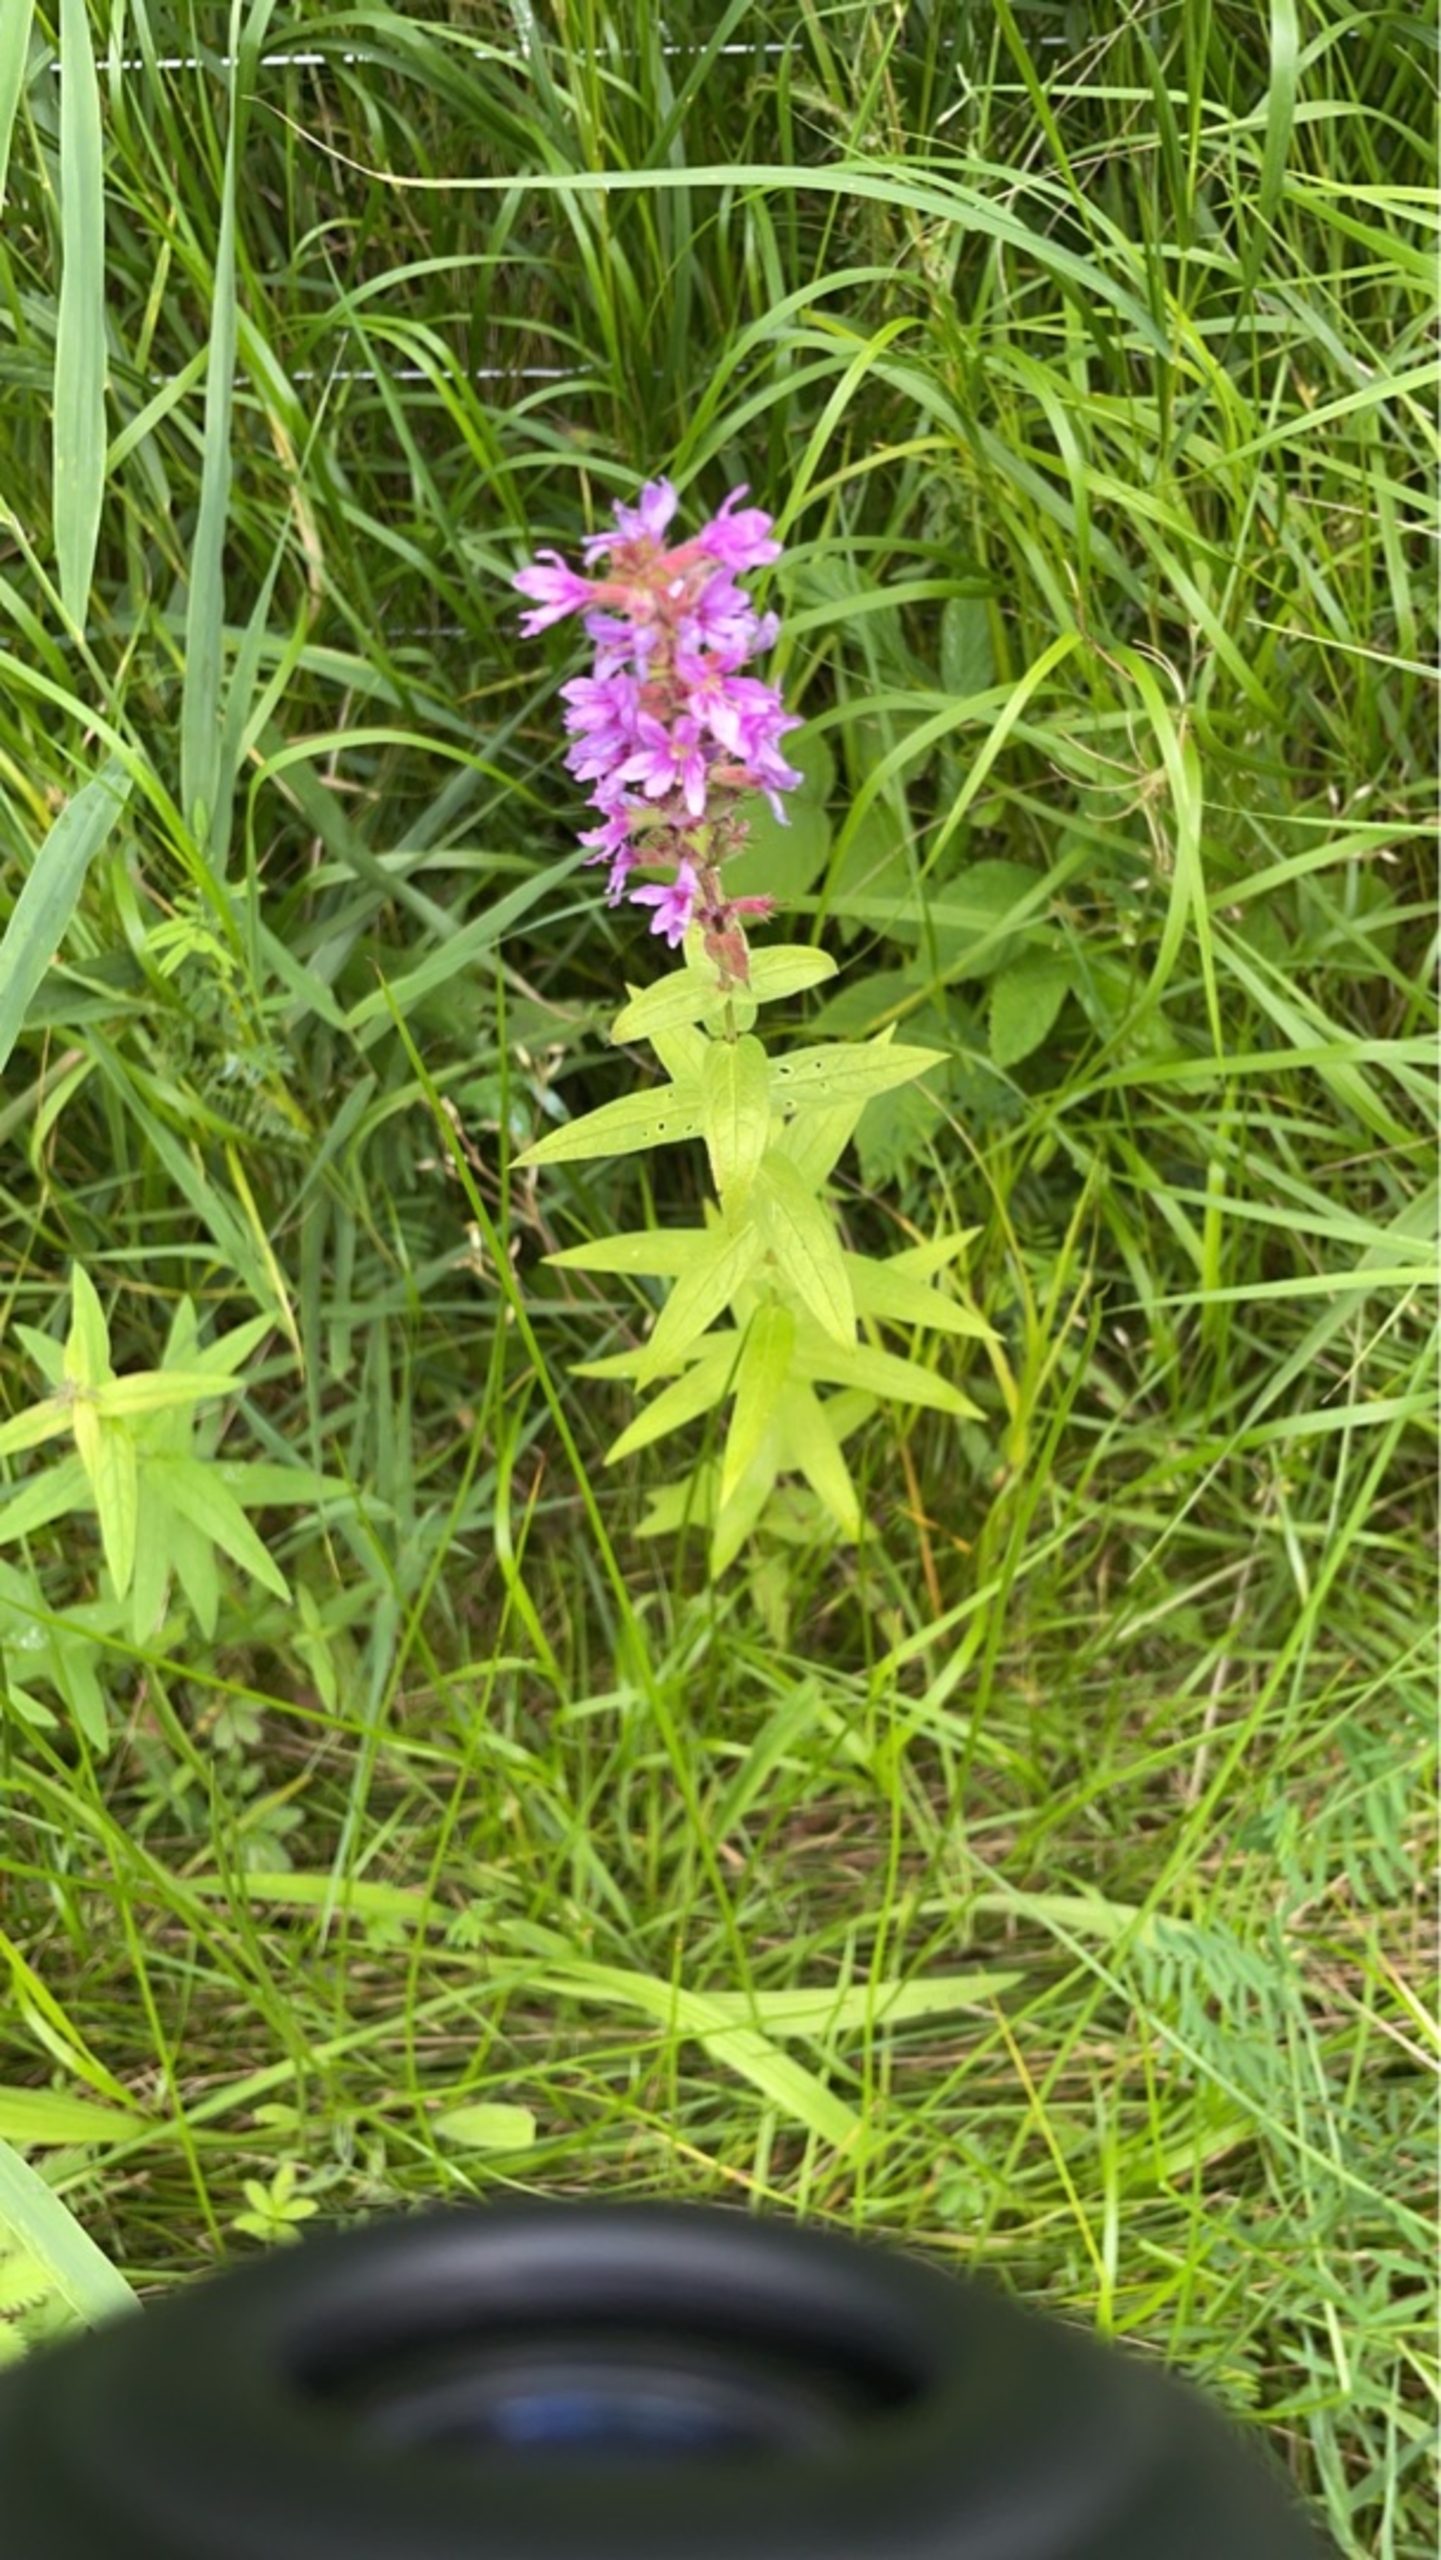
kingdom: Plantae
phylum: Tracheophyta
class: Magnoliopsida
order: Myrtales
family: Lythraceae
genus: Lythrum
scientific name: Lythrum salicaria
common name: Kattehale
